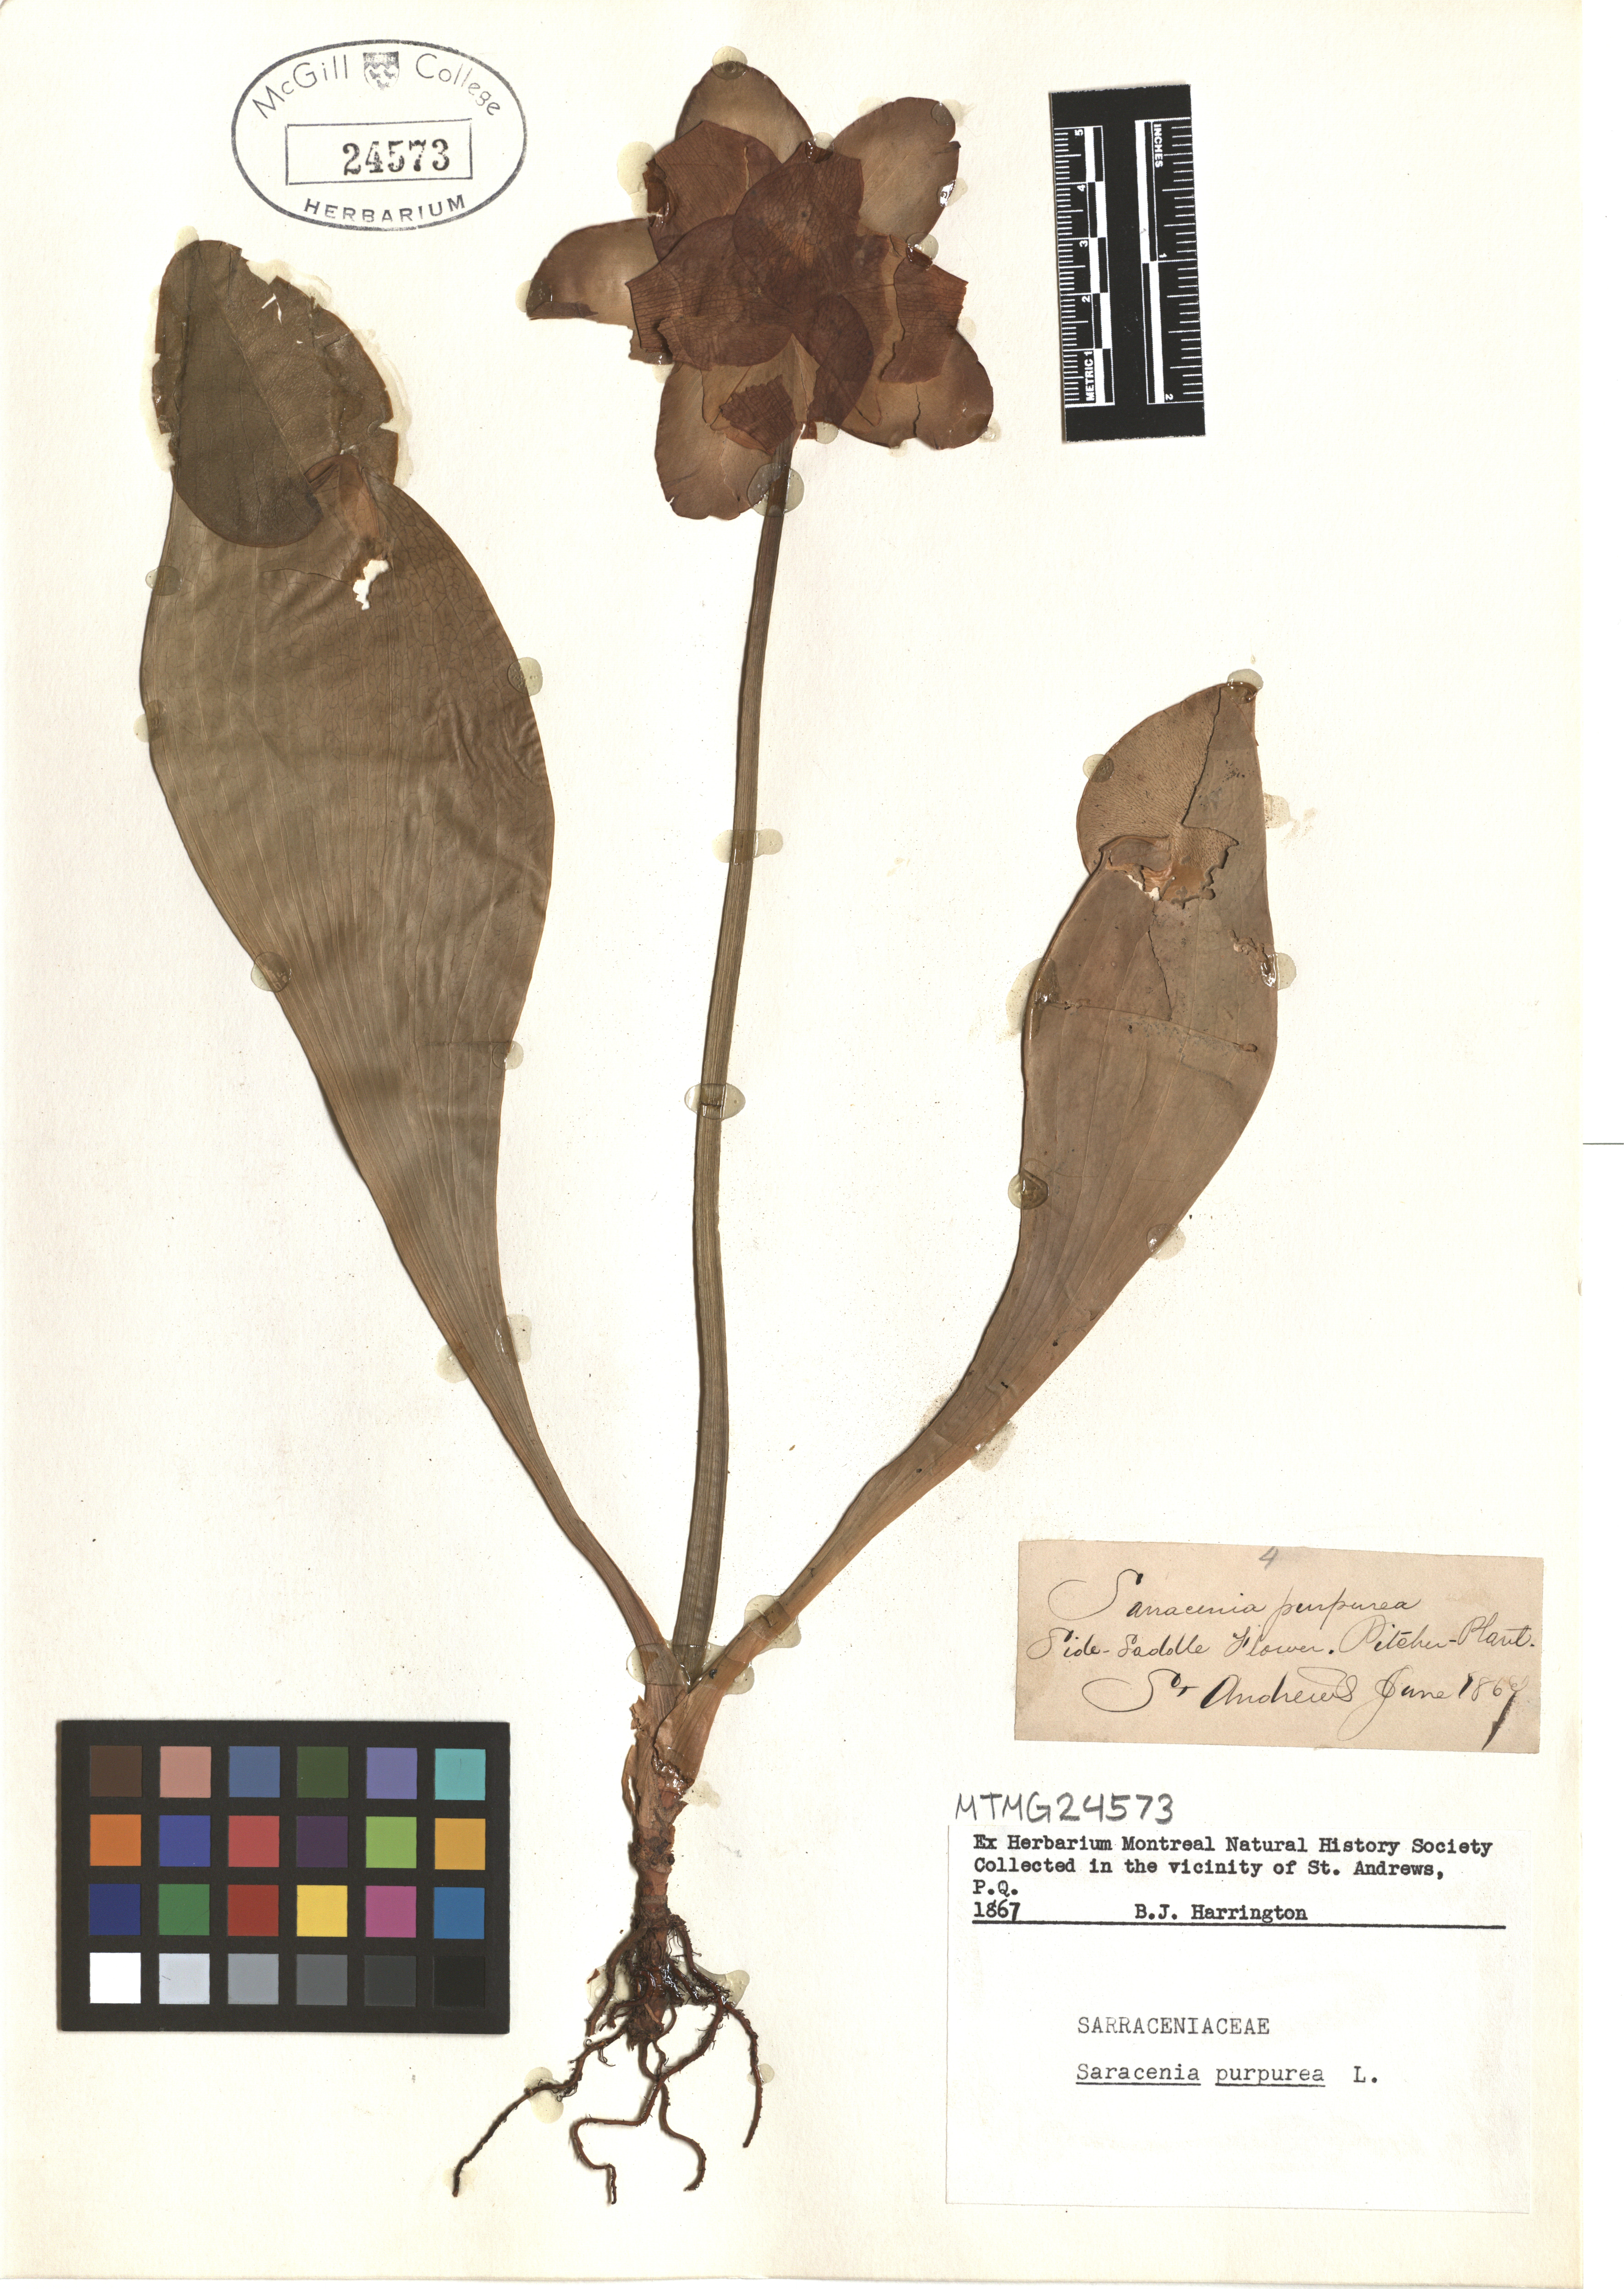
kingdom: Plantae
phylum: Tracheophyta
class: Magnoliopsida
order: Ericales
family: Sarraceniaceae
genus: Sarracenia
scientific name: Sarracenia purpurea
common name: Pitcherplant
